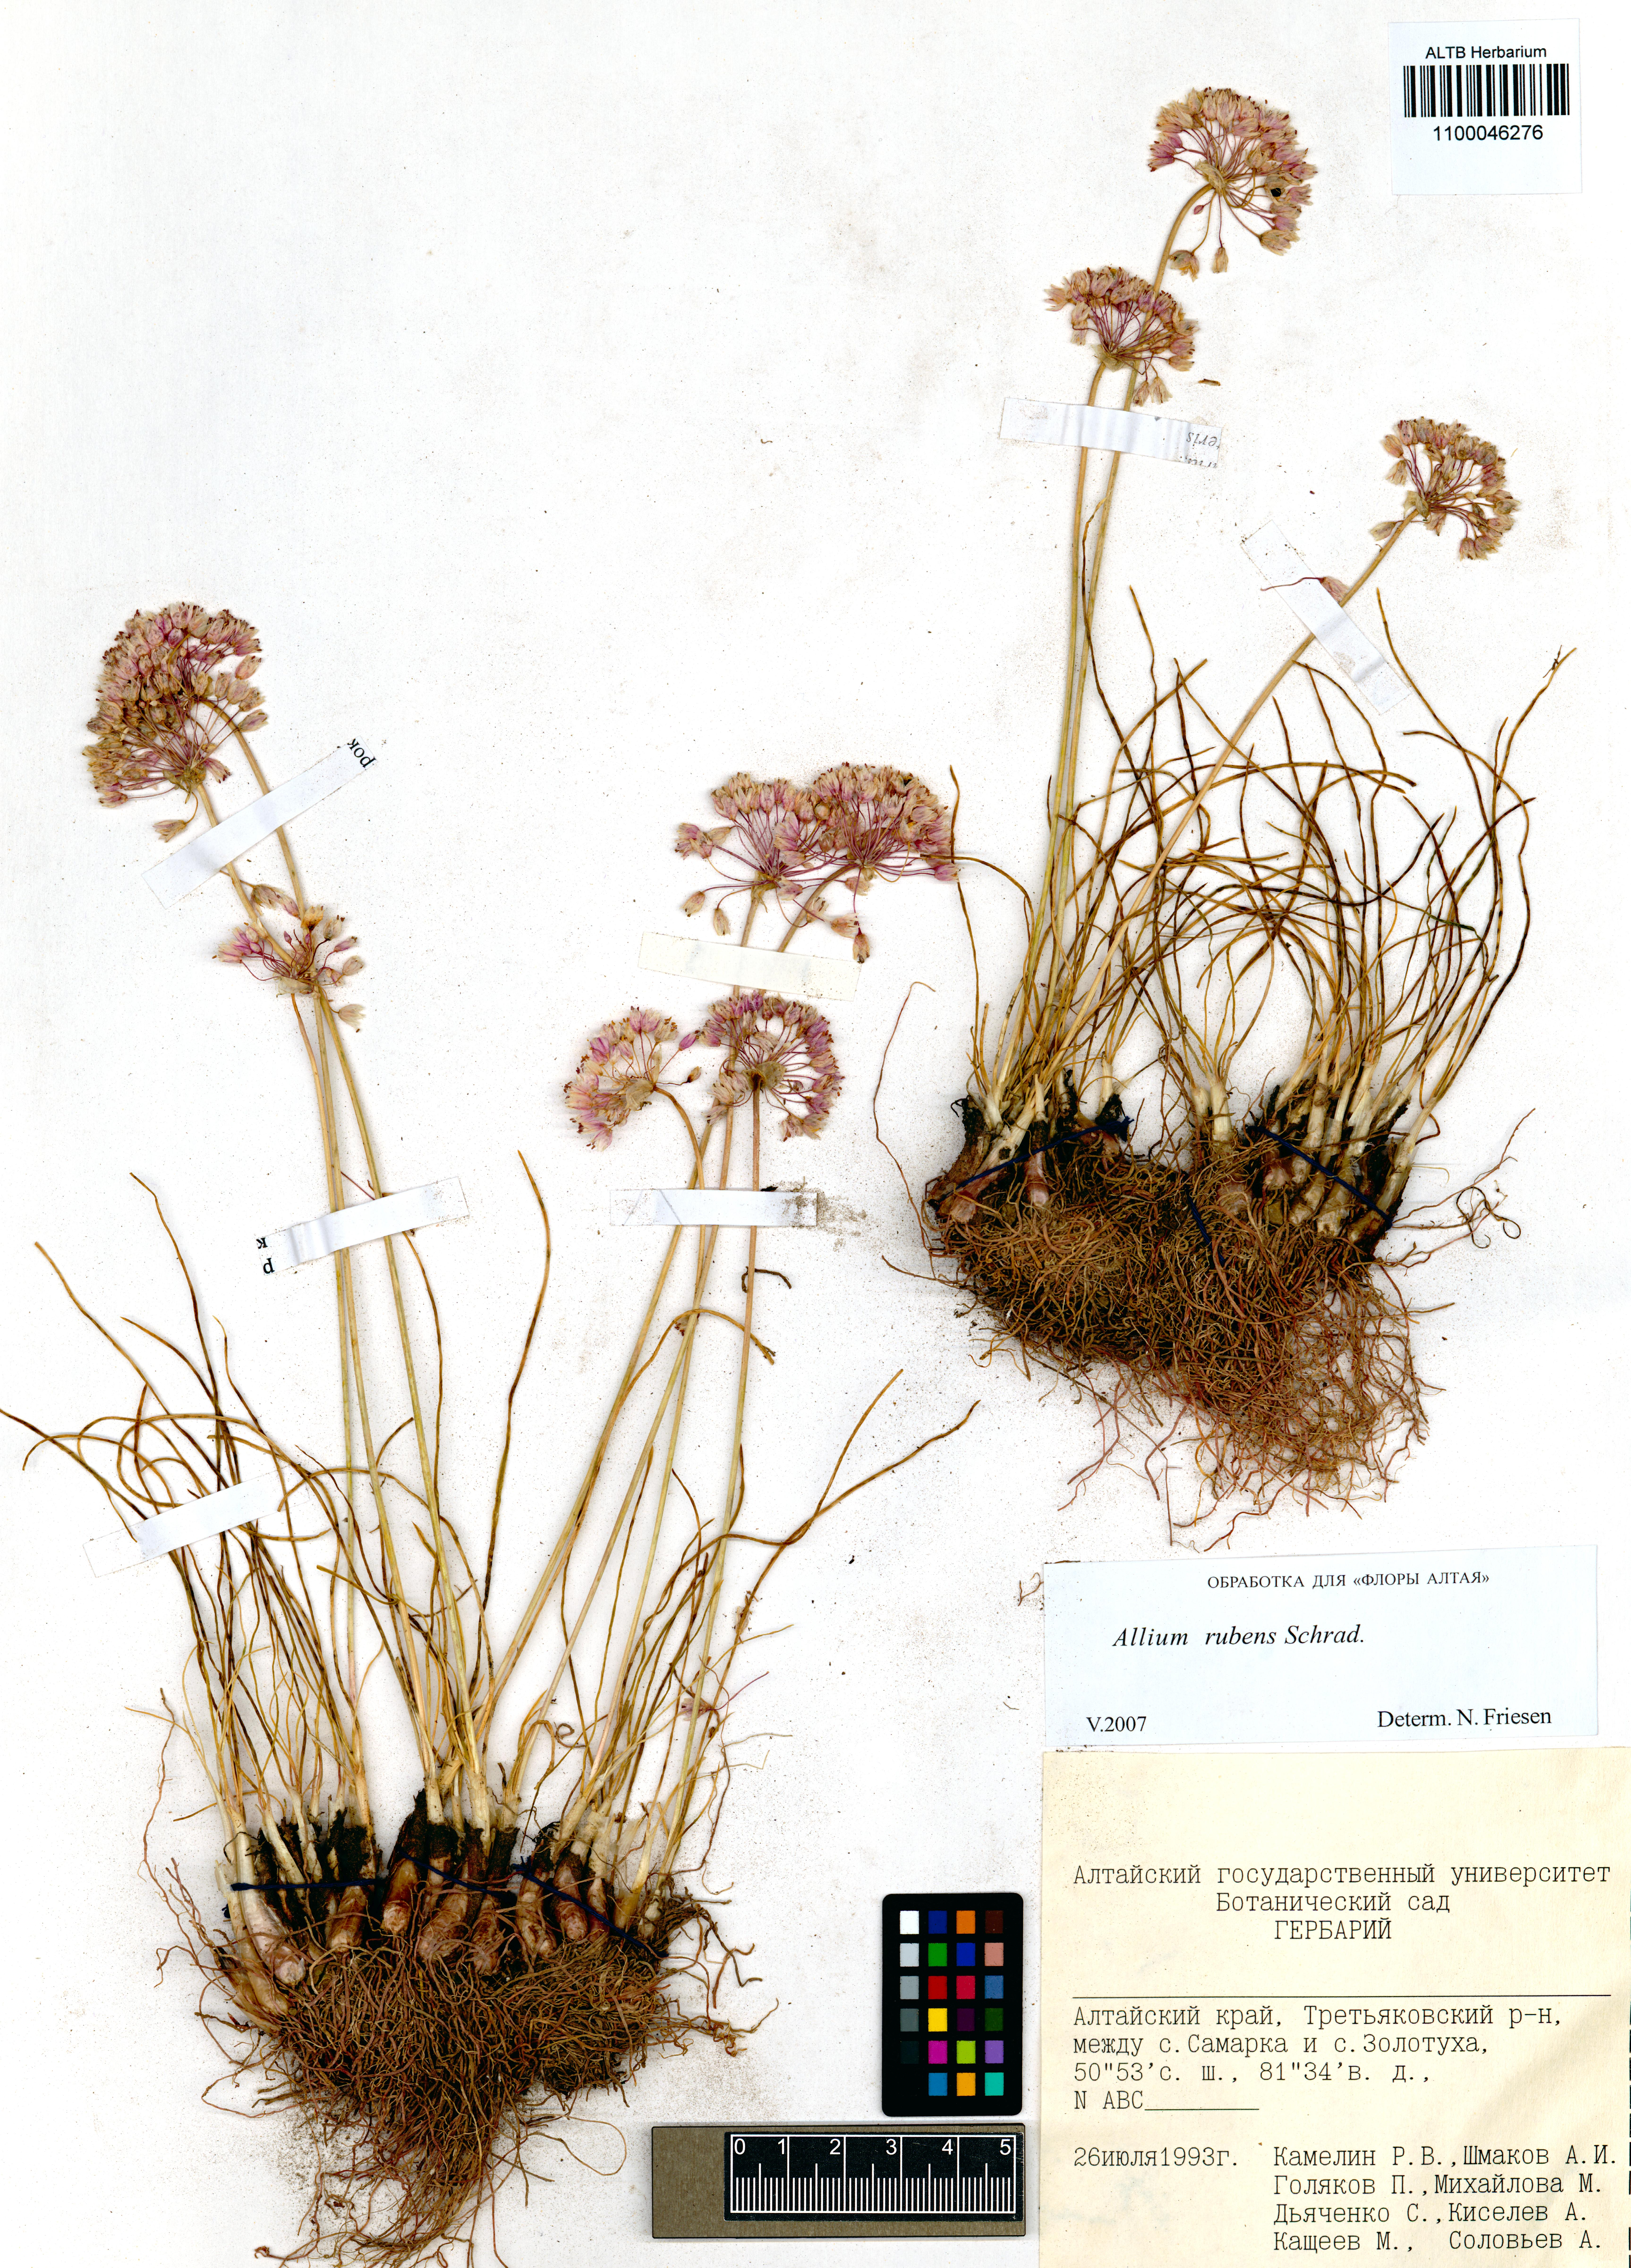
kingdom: Plantae
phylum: Tracheophyta
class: Liliopsida
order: Asparagales
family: Amaryllidaceae
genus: Allium
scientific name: Allium rubens
